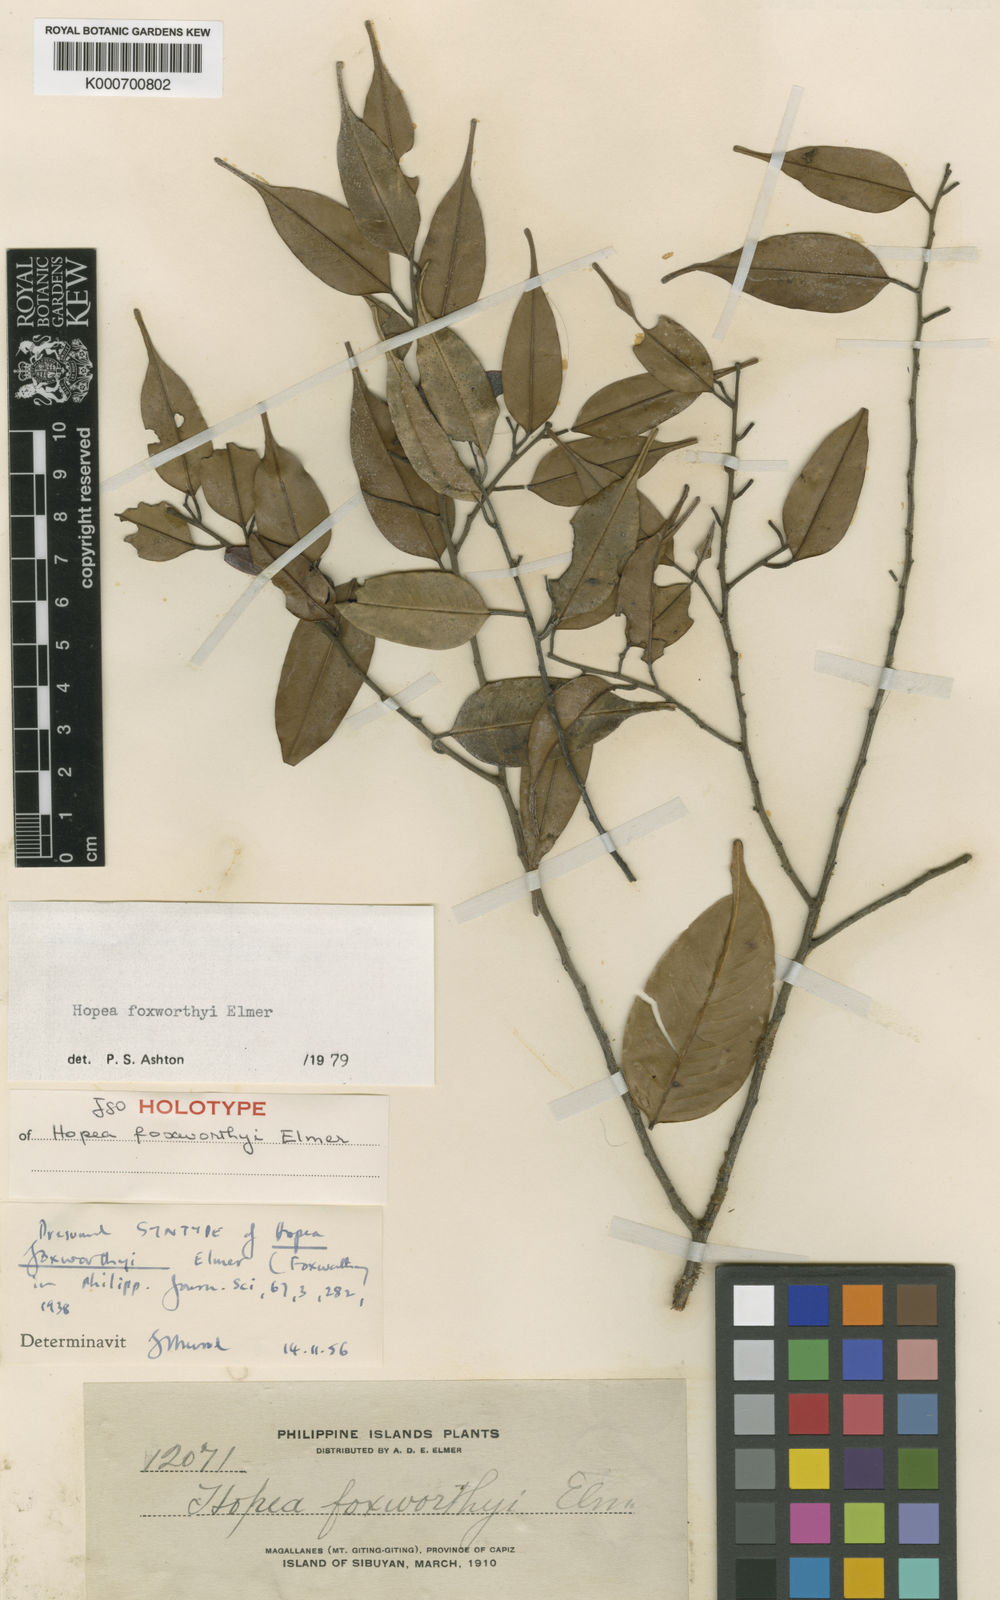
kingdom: Plantae
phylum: Tracheophyta
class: Magnoliopsida
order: Malvales
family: Dipterocarpaceae
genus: Hopea
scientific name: Hopea foxworthyi
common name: Dalingdingan
